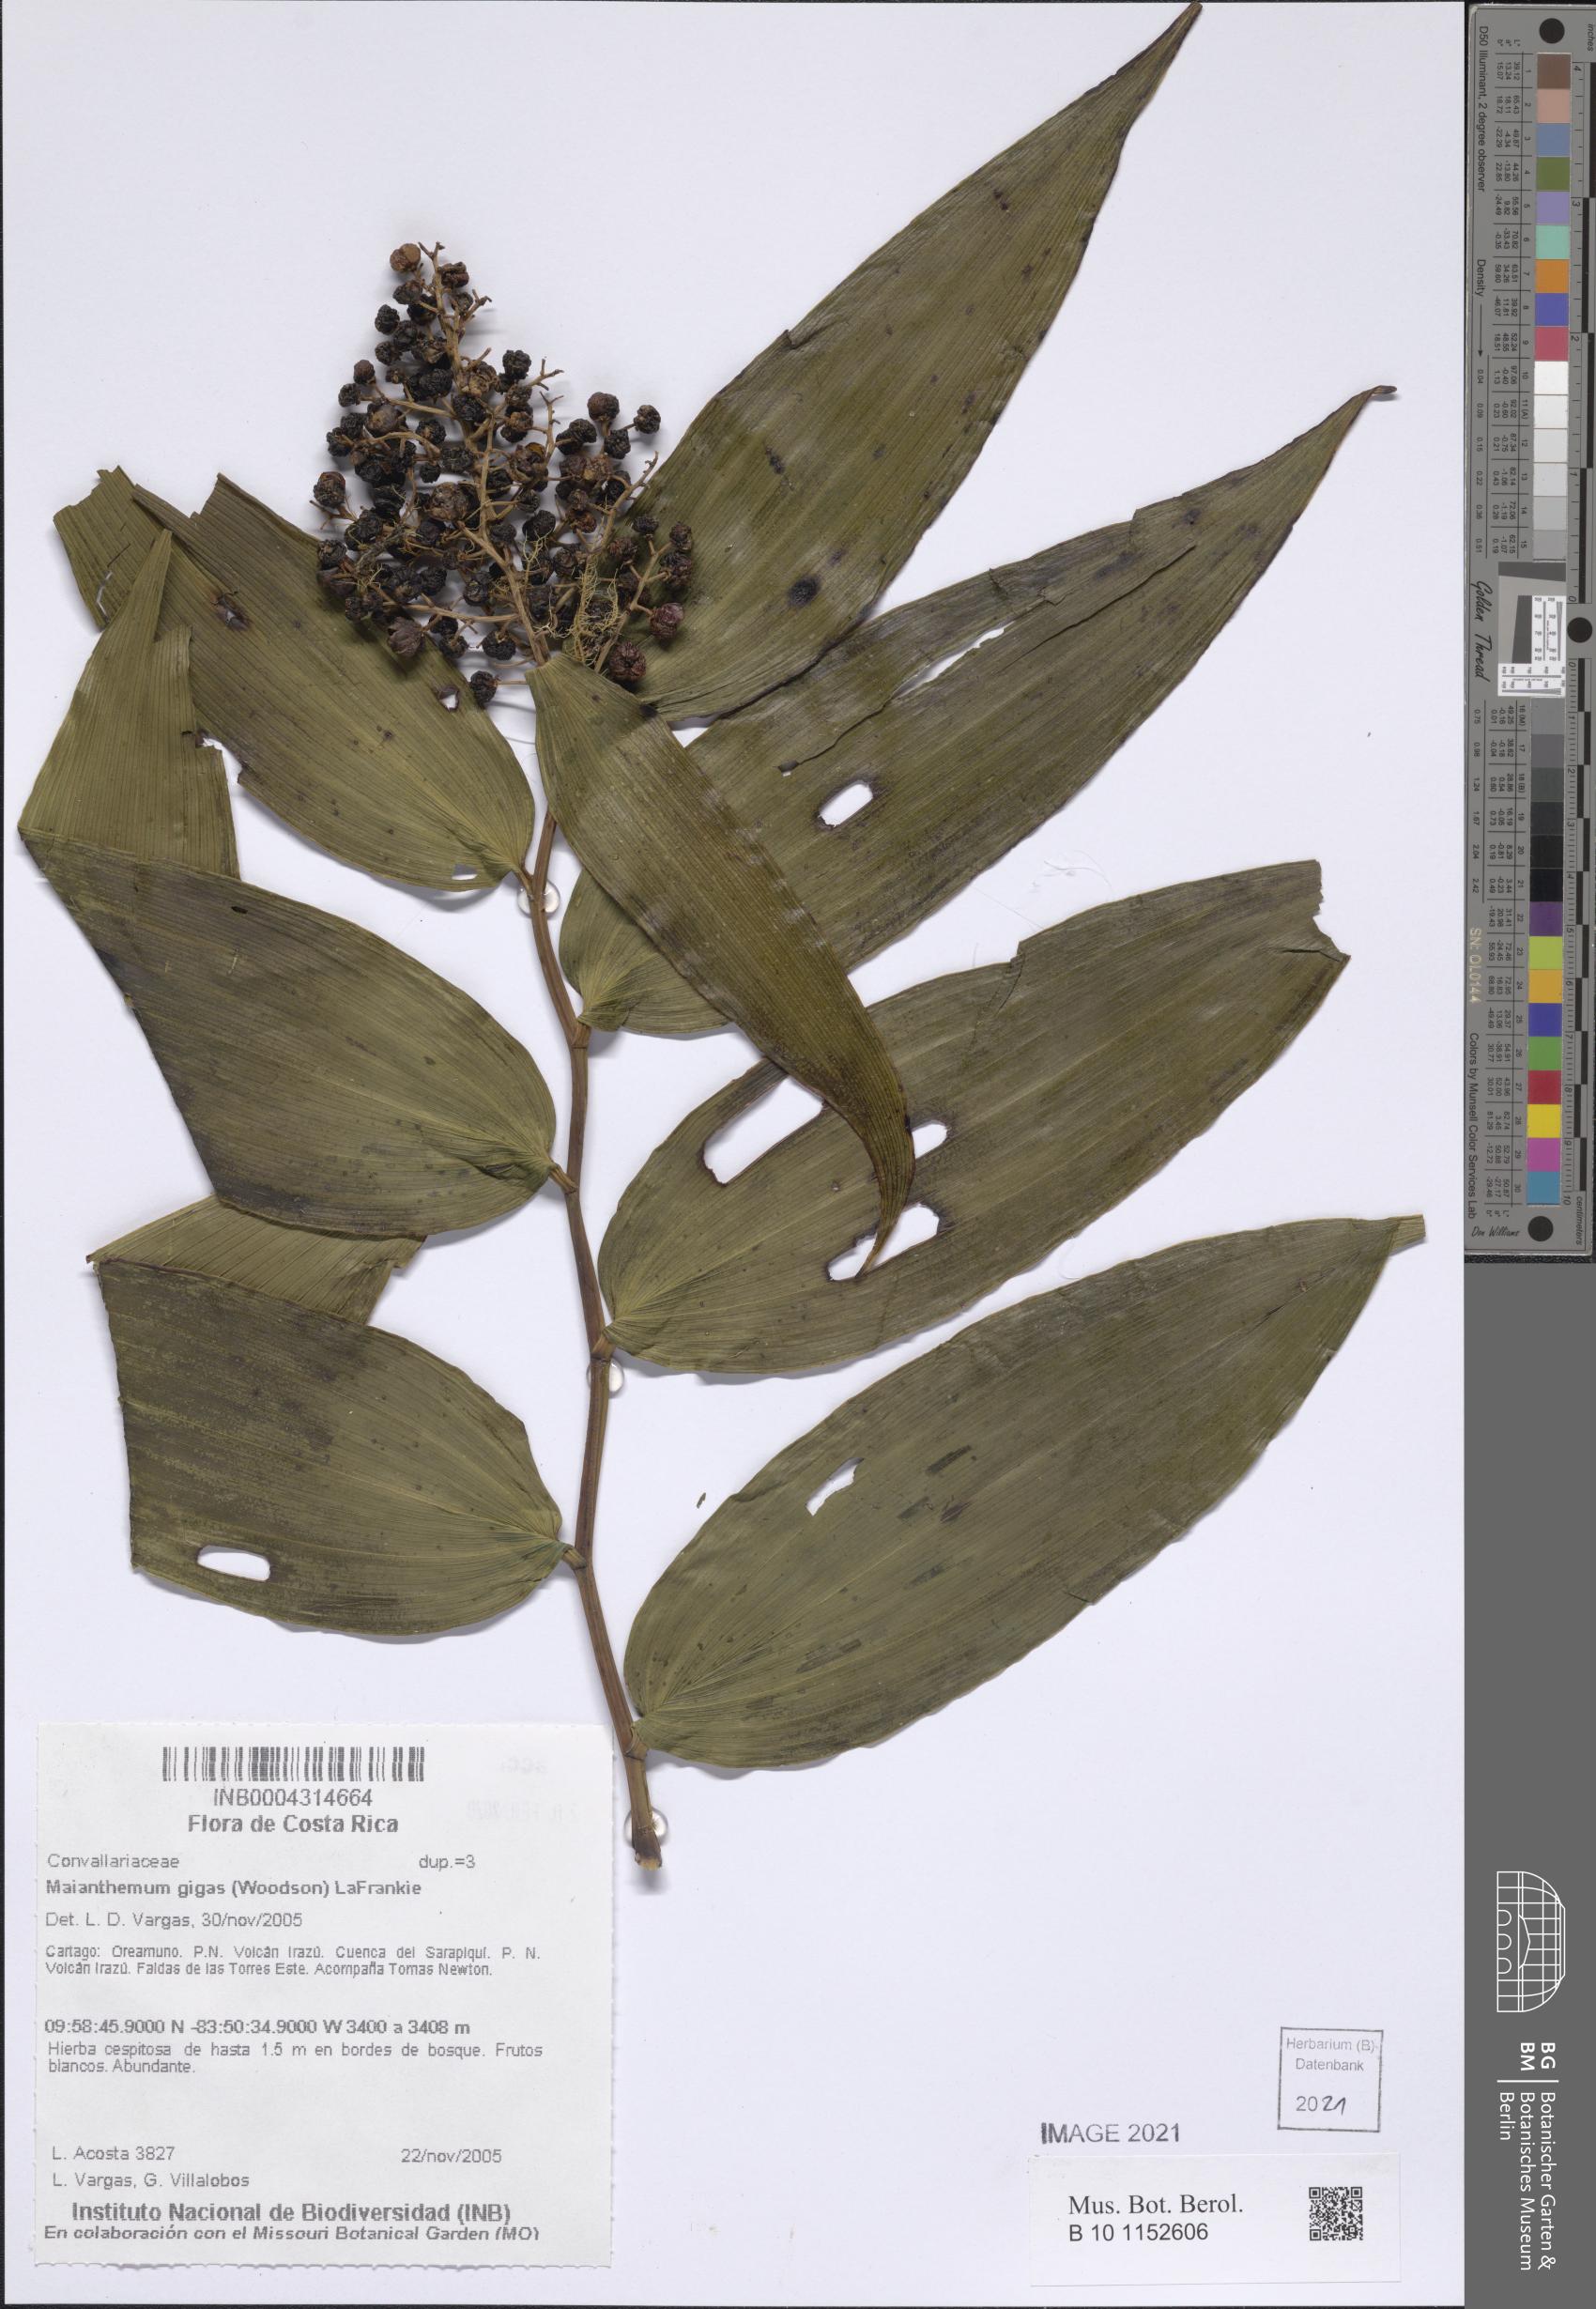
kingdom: Plantae
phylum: Tracheophyta
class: Liliopsida
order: Asparagales
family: Asparagaceae
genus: Maianthemum
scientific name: Maianthemum gigas
